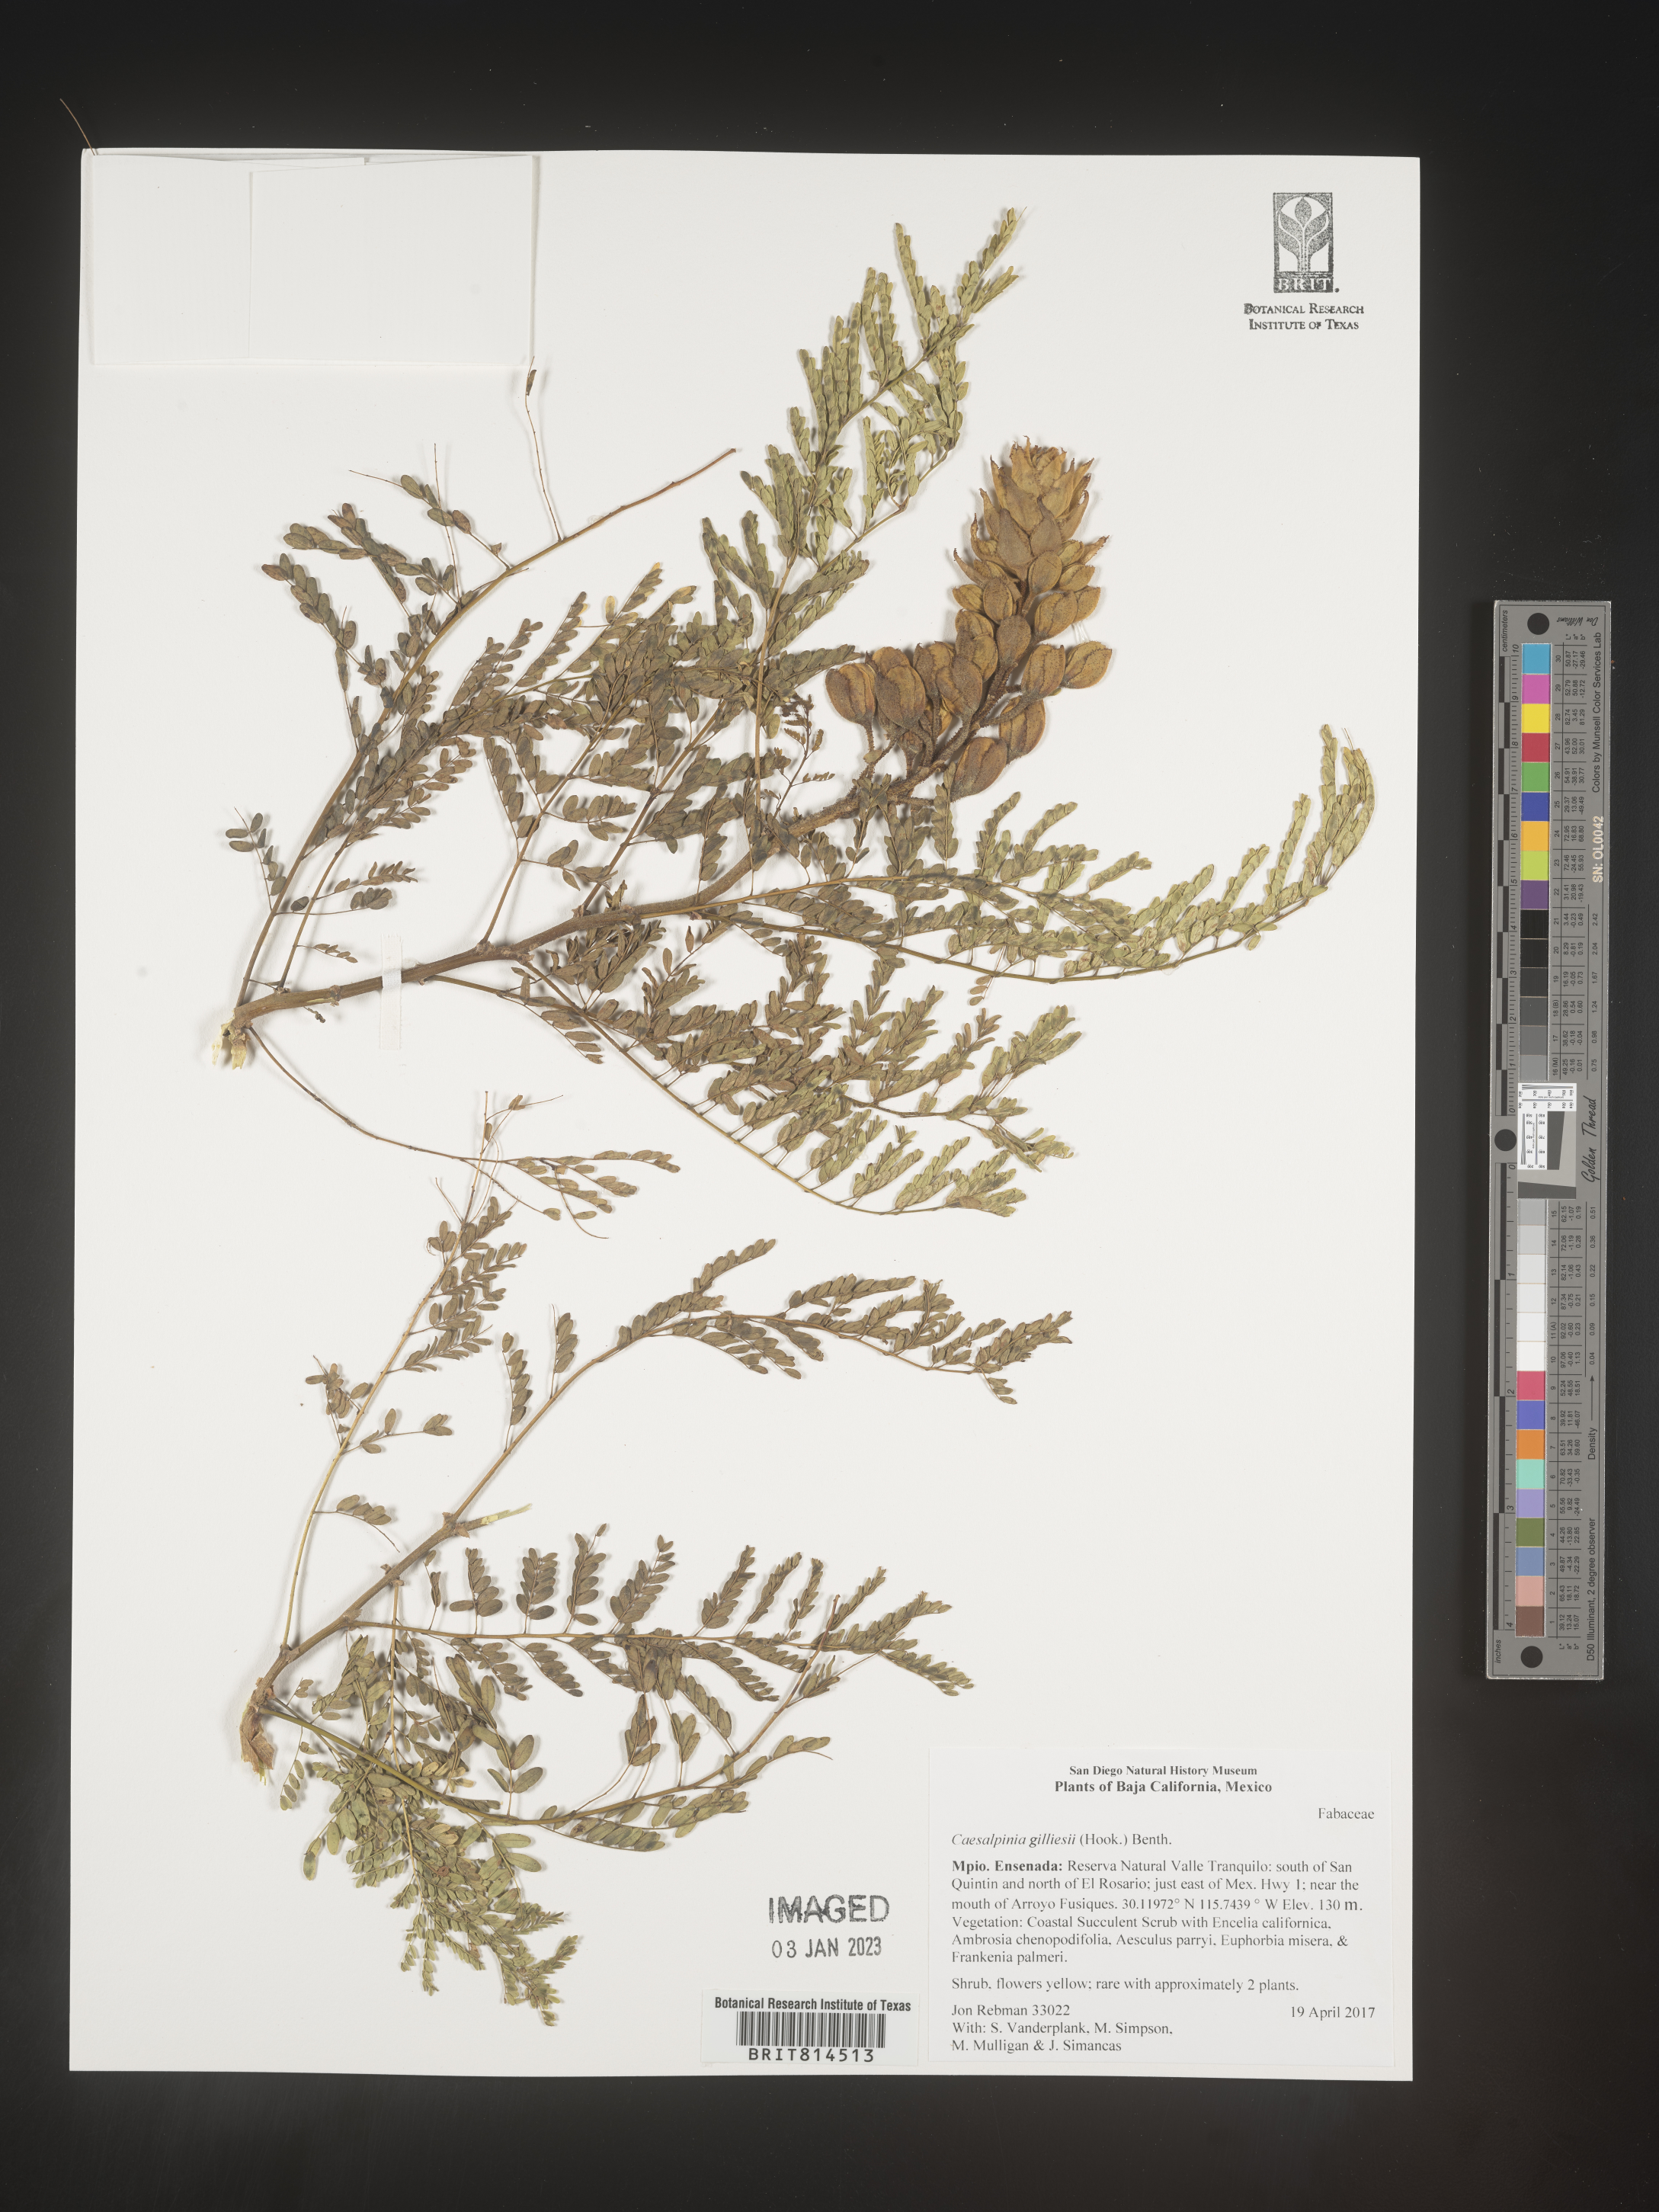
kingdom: Plantae
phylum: Tracheophyta
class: Magnoliopsida
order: Fabales
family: Fabaceae
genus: Caesalpinia
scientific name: Caesalpinia
